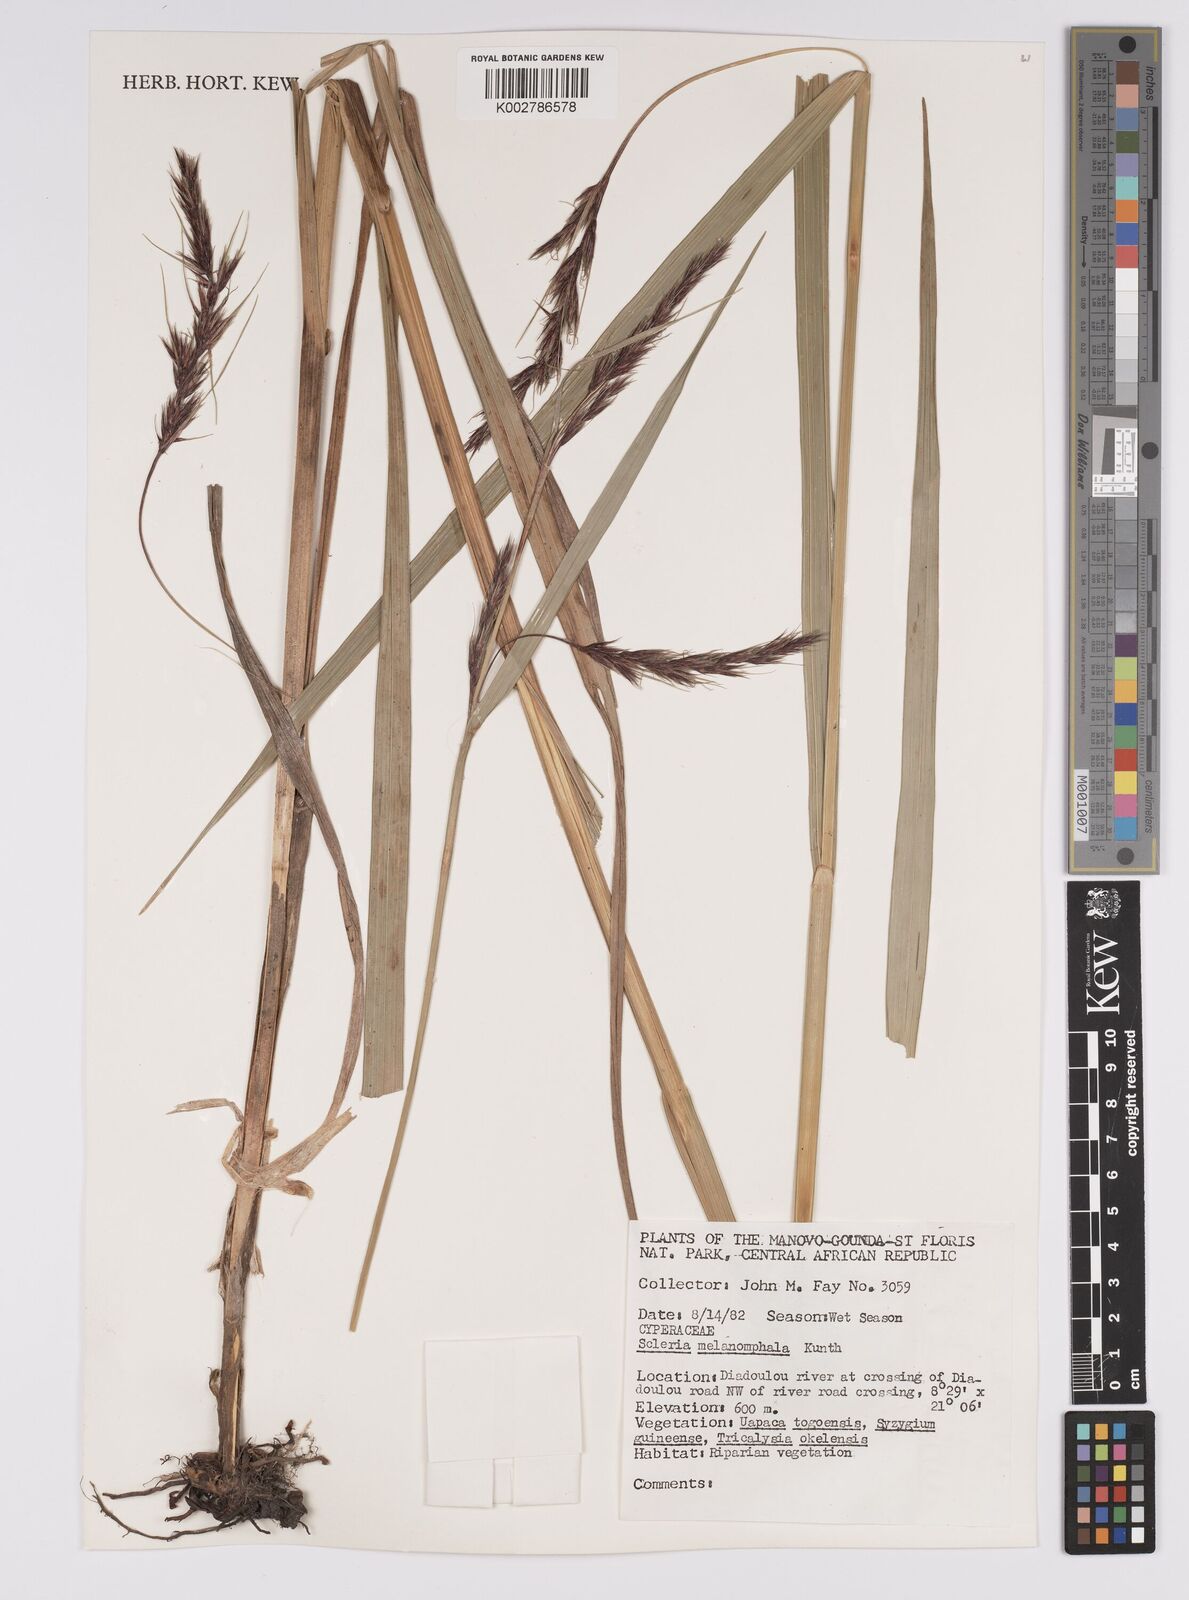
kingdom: Plantae
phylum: Tracheophyta
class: Liliopsida
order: Poales
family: Cyperaceae
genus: Scleria
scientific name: Scleria melanomphala
